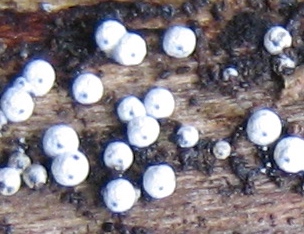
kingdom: Fungi
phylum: Ascomycota
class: Sordariomycetes
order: Sordariales
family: Lasiosphaeriaceae
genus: Lasiosphaeria
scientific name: Lasiosphaeria ovina
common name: fåre-kernesvamp
